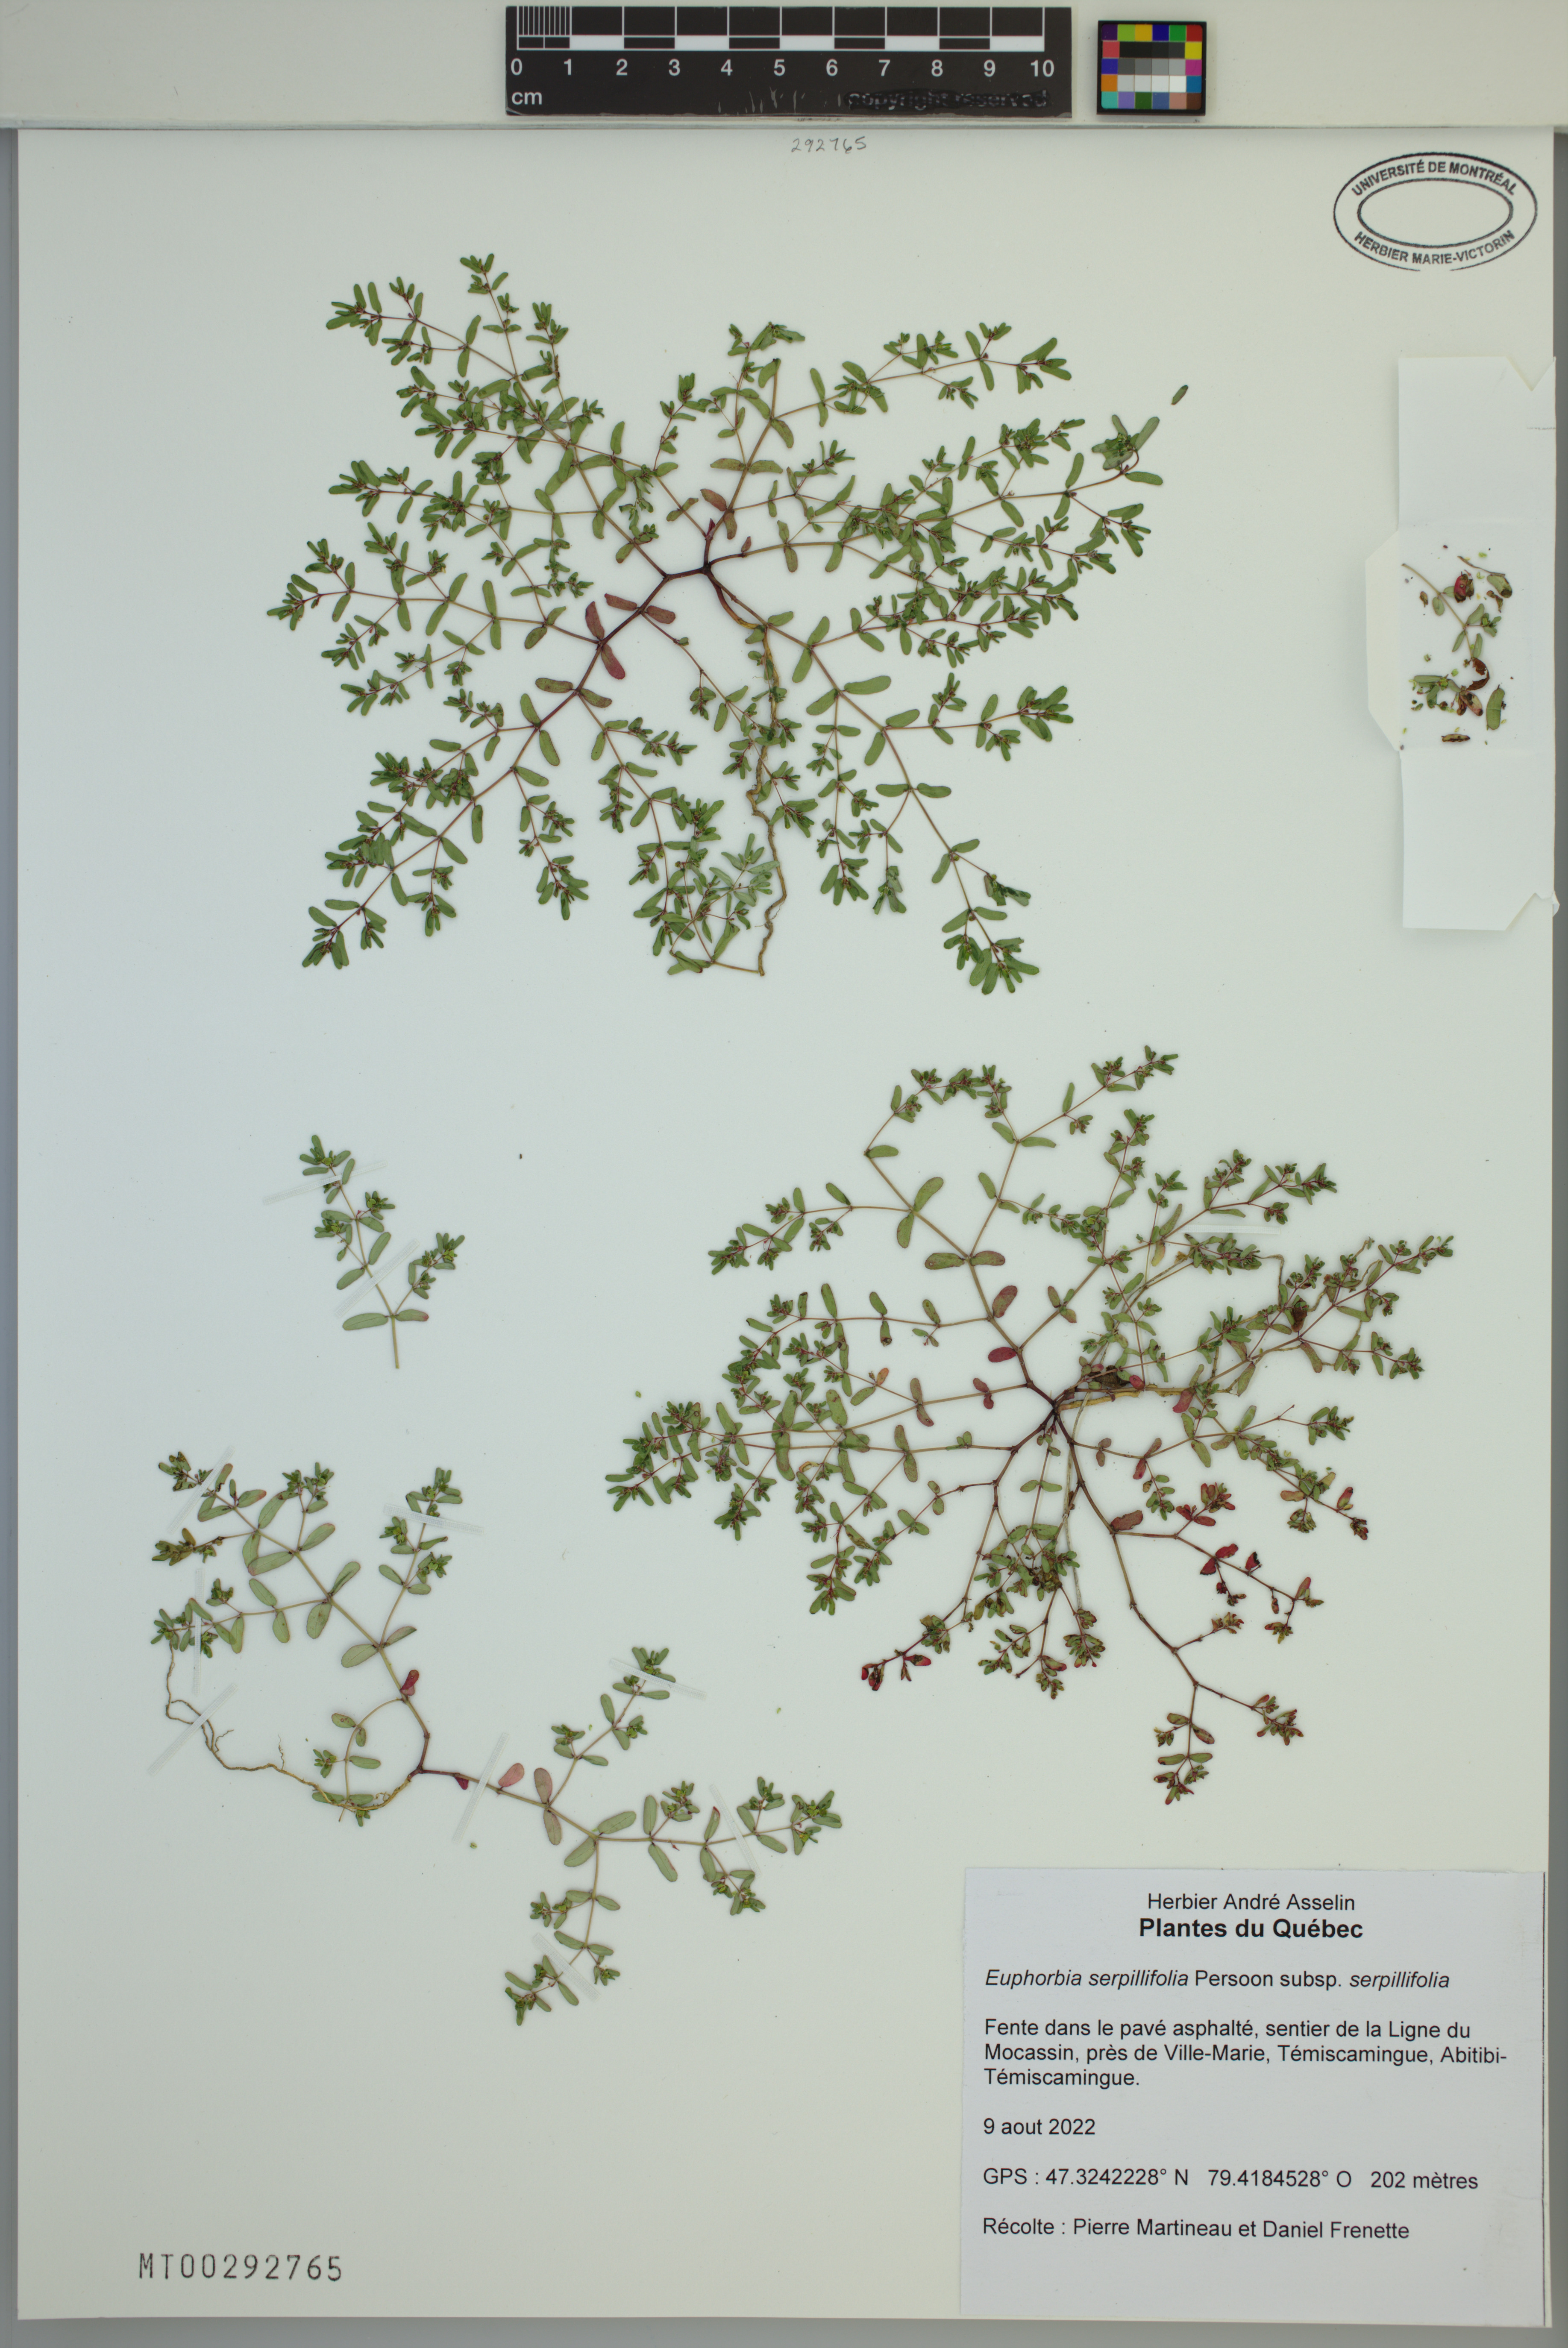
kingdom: Plantae
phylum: Tracheophyta
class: Magnoliopsida
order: Malpighiales
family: Euphorbiaceae
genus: Euphorbia
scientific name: Euphorbia serpillifolia
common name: Thyme-leaf spurge
